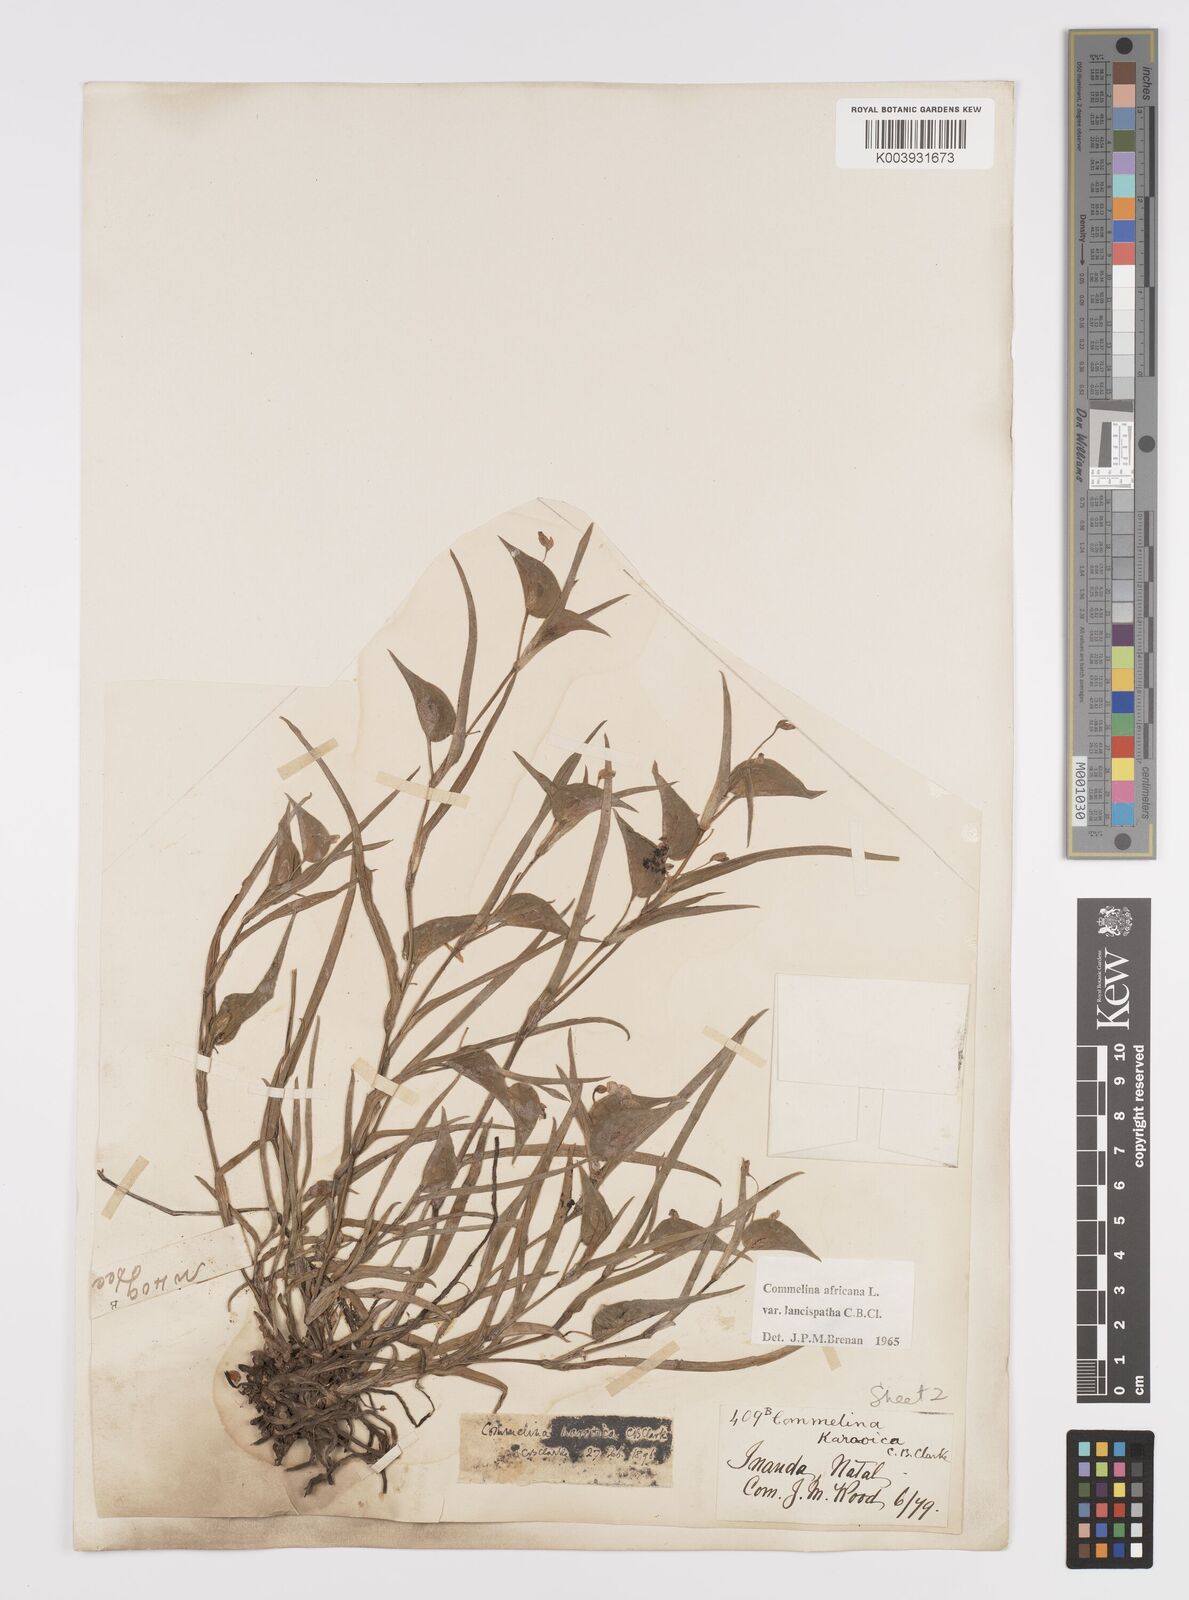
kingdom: Plantae
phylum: Tracheophyta
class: Liliopsida
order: Commelinales
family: Commelinaceae
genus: Commelina
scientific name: Commelina africana
